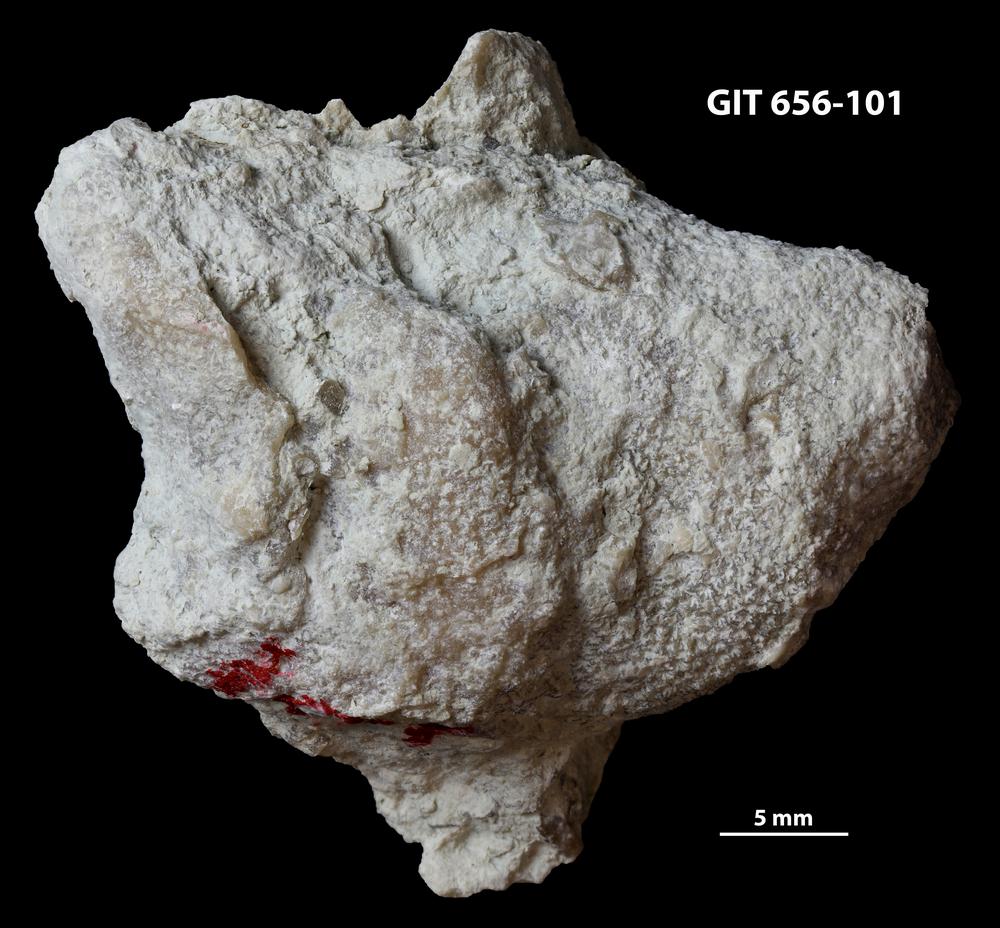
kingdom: Animalia
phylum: Cnidaria
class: Anthozoa
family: Theciidae
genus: Laceripora
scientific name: Laceripora
